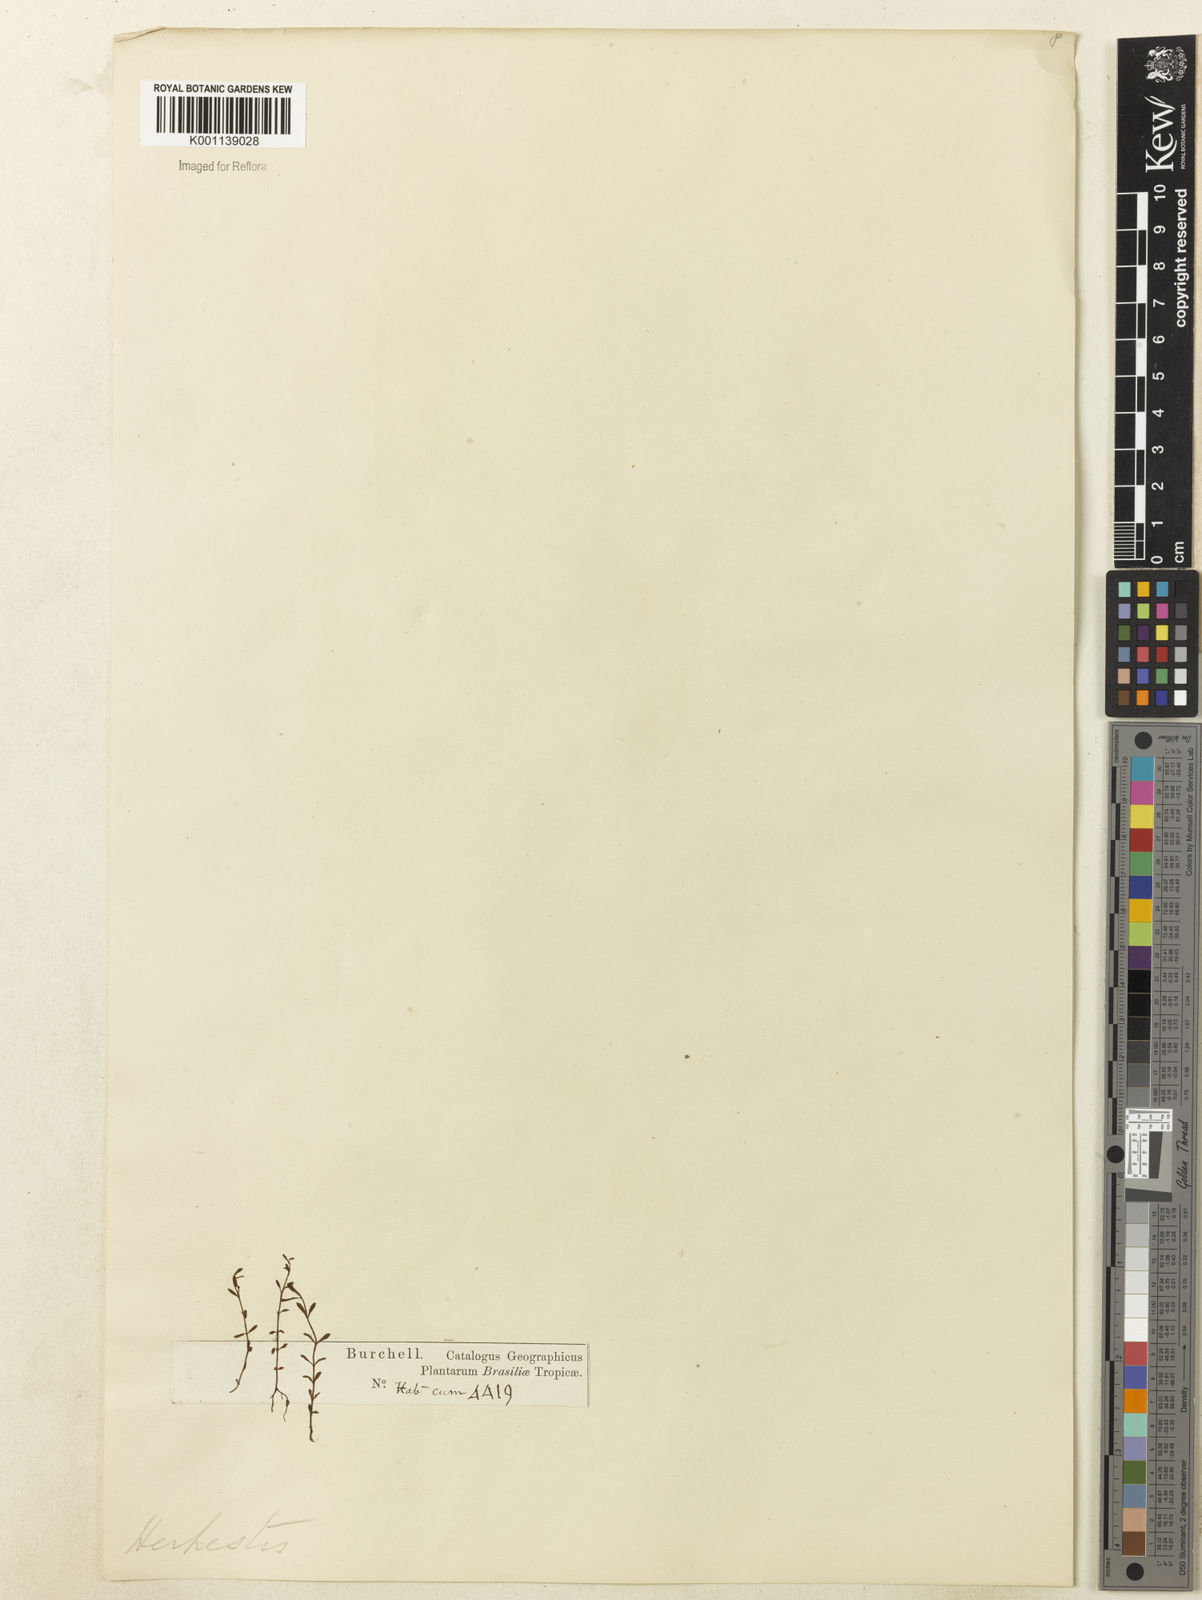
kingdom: Plantae
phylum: Tracheophyta
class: Magnoliopsida
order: Lamiales
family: Plantaginaceae
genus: Bacopa
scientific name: Bacopa
